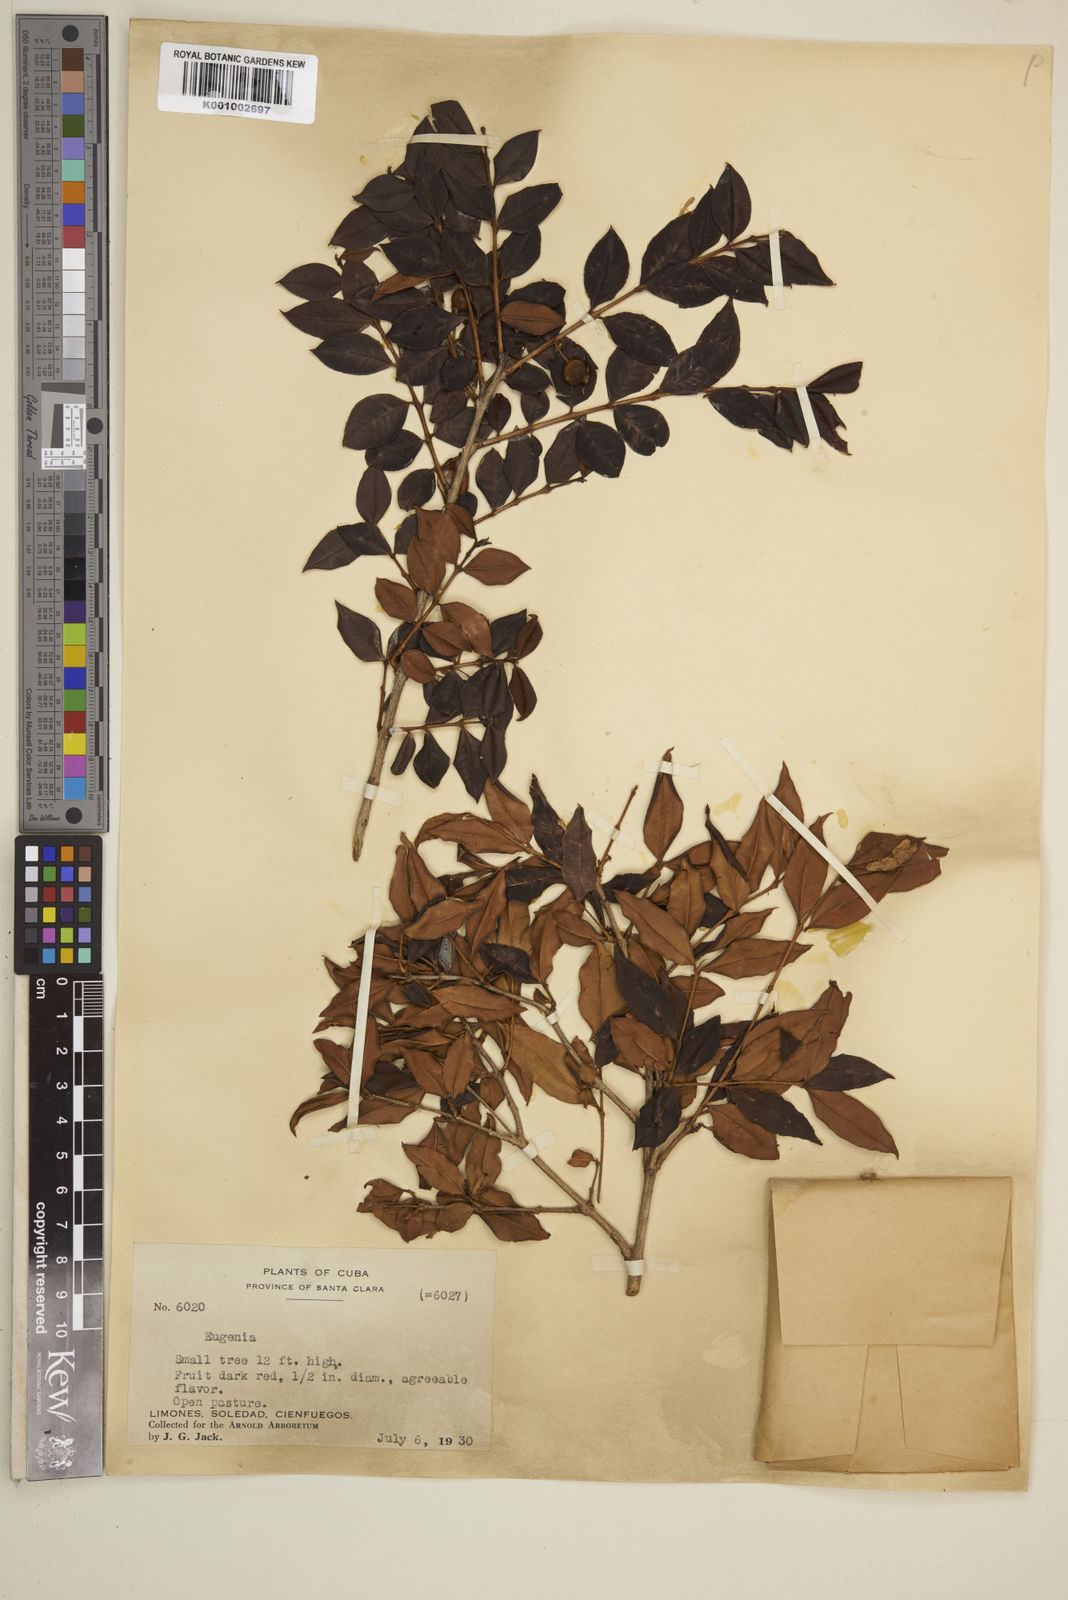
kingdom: Plantae
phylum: Tracheophyta
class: Magnoliopsida
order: Myrtales
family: Myrtaceae
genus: Eugenia
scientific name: Eugenia
